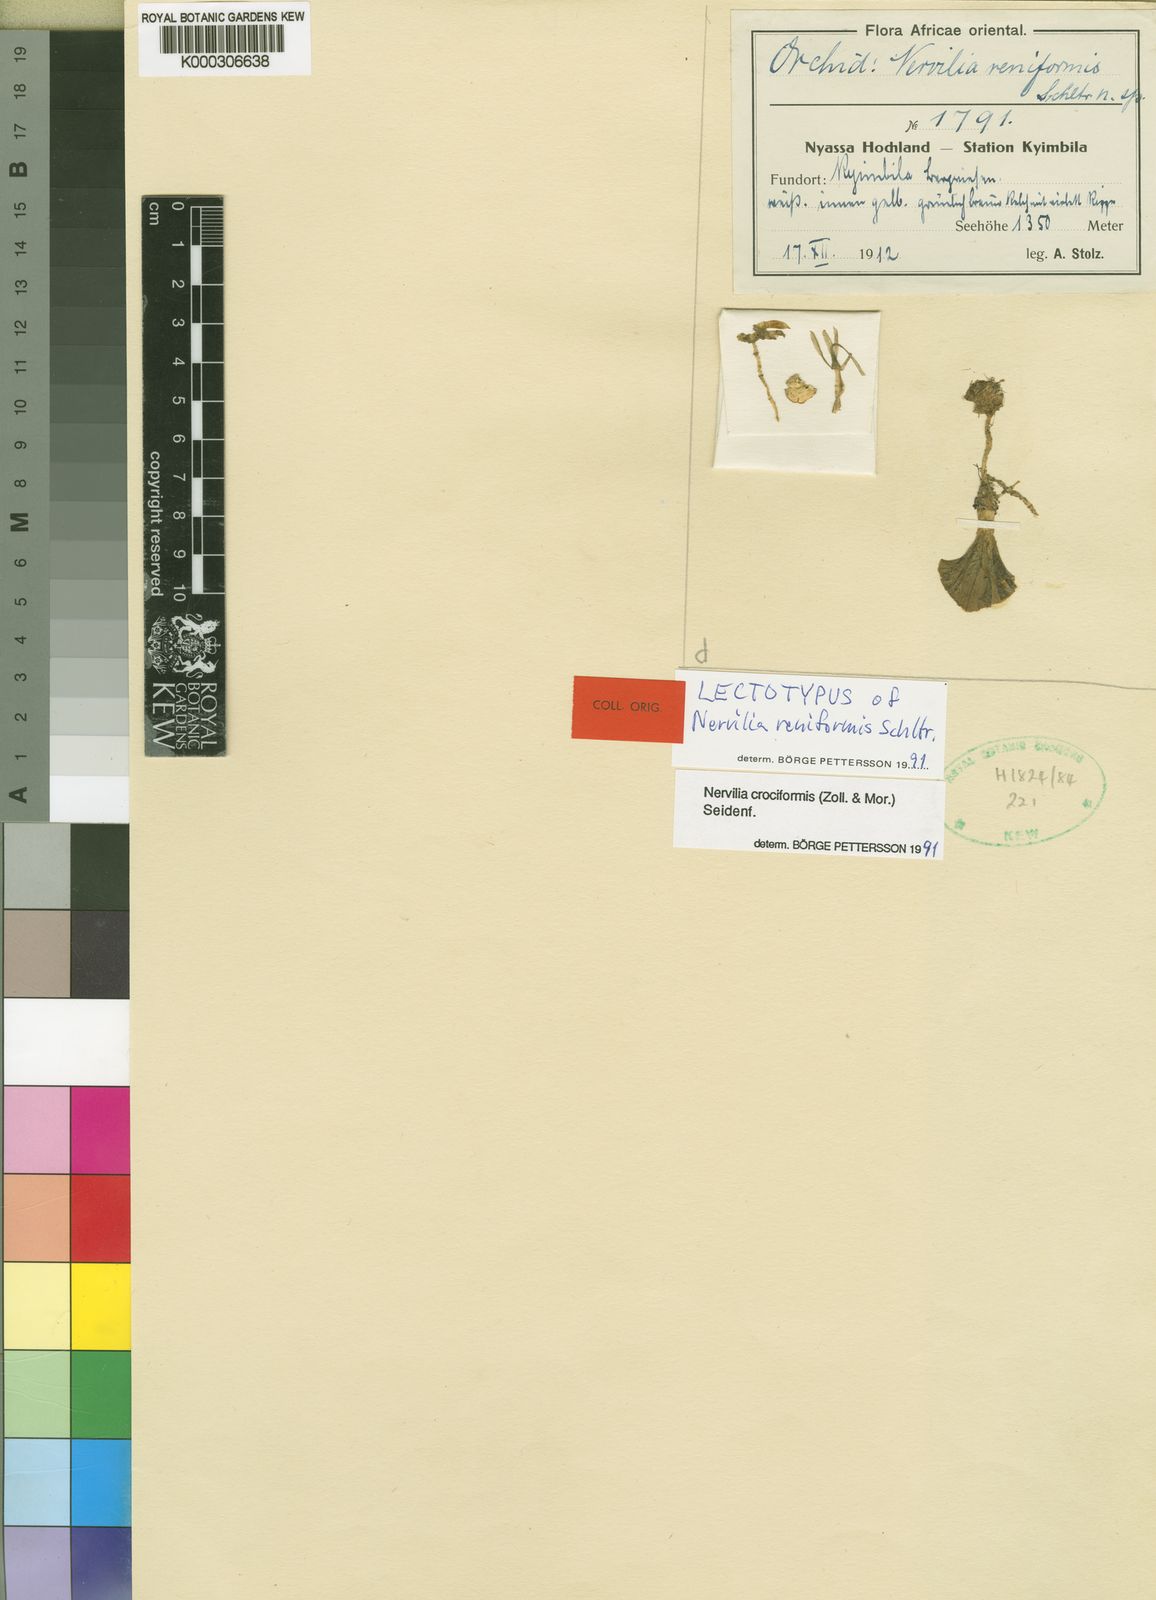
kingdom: Plantae
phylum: Tracheophyta
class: Liliopsida
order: Asparagales
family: Orchidaceae
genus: Nervilia
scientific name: Nervilia simplex
